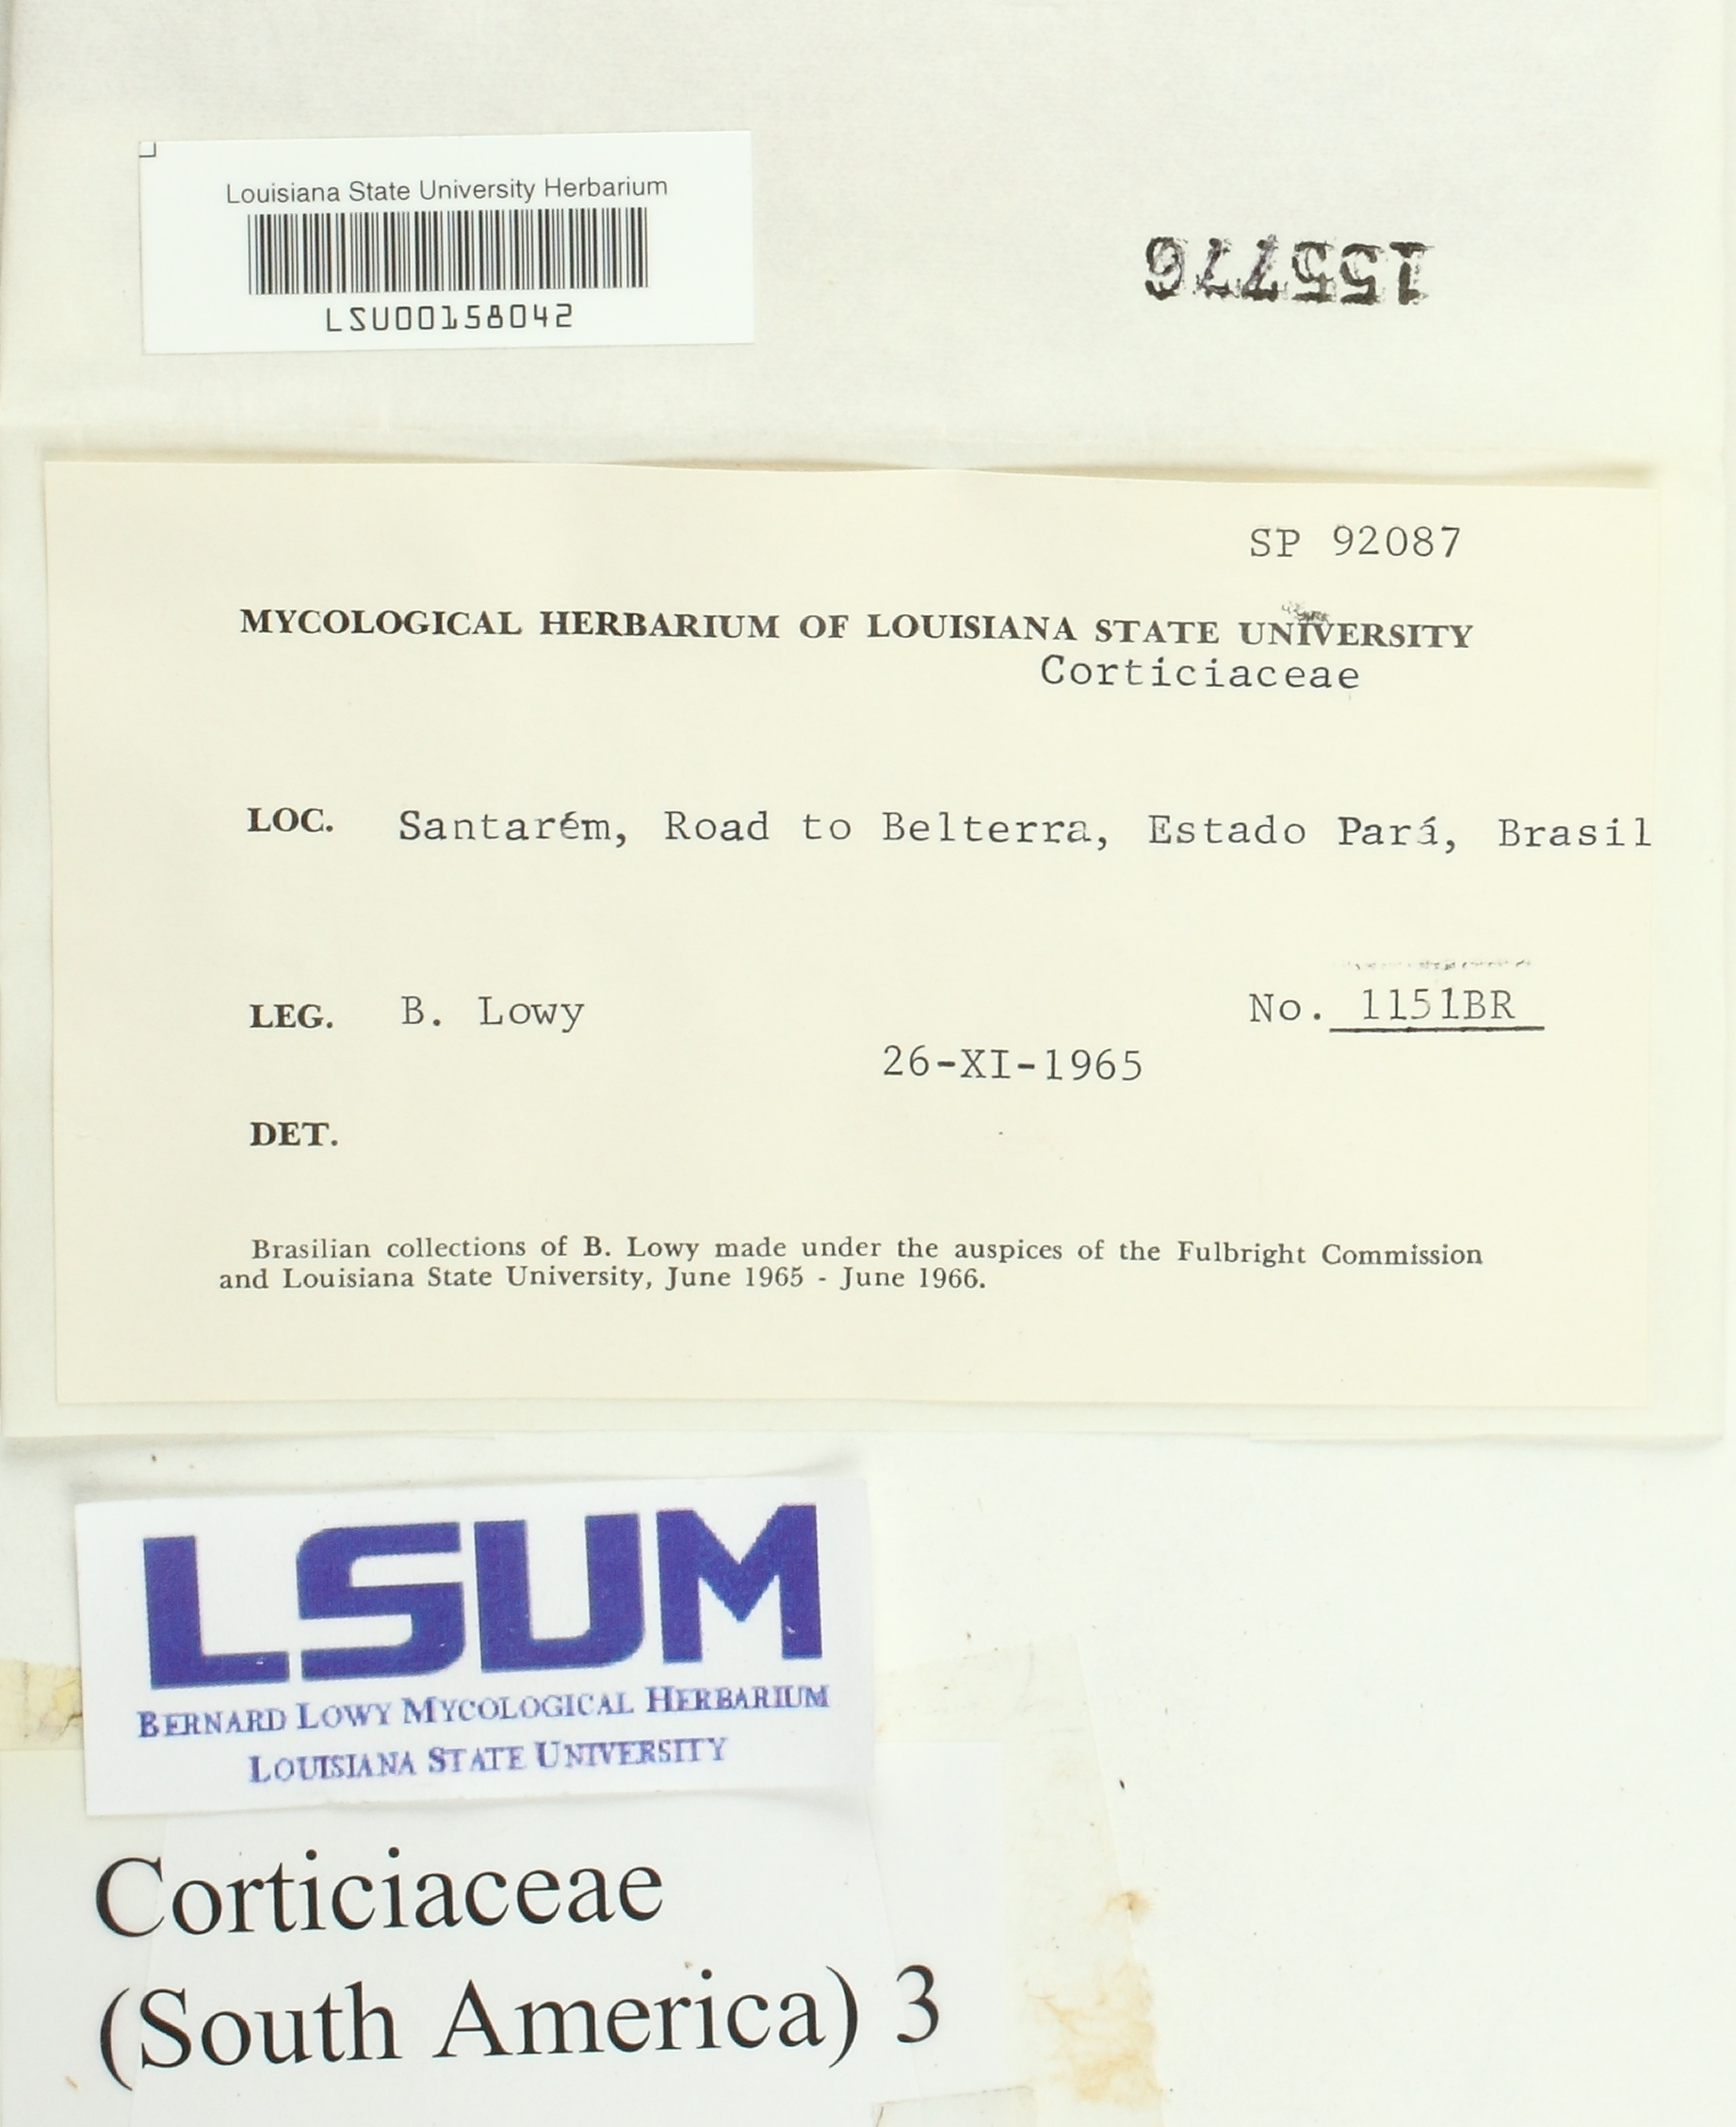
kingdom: Fungi
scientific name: Fungi
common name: Fungi
